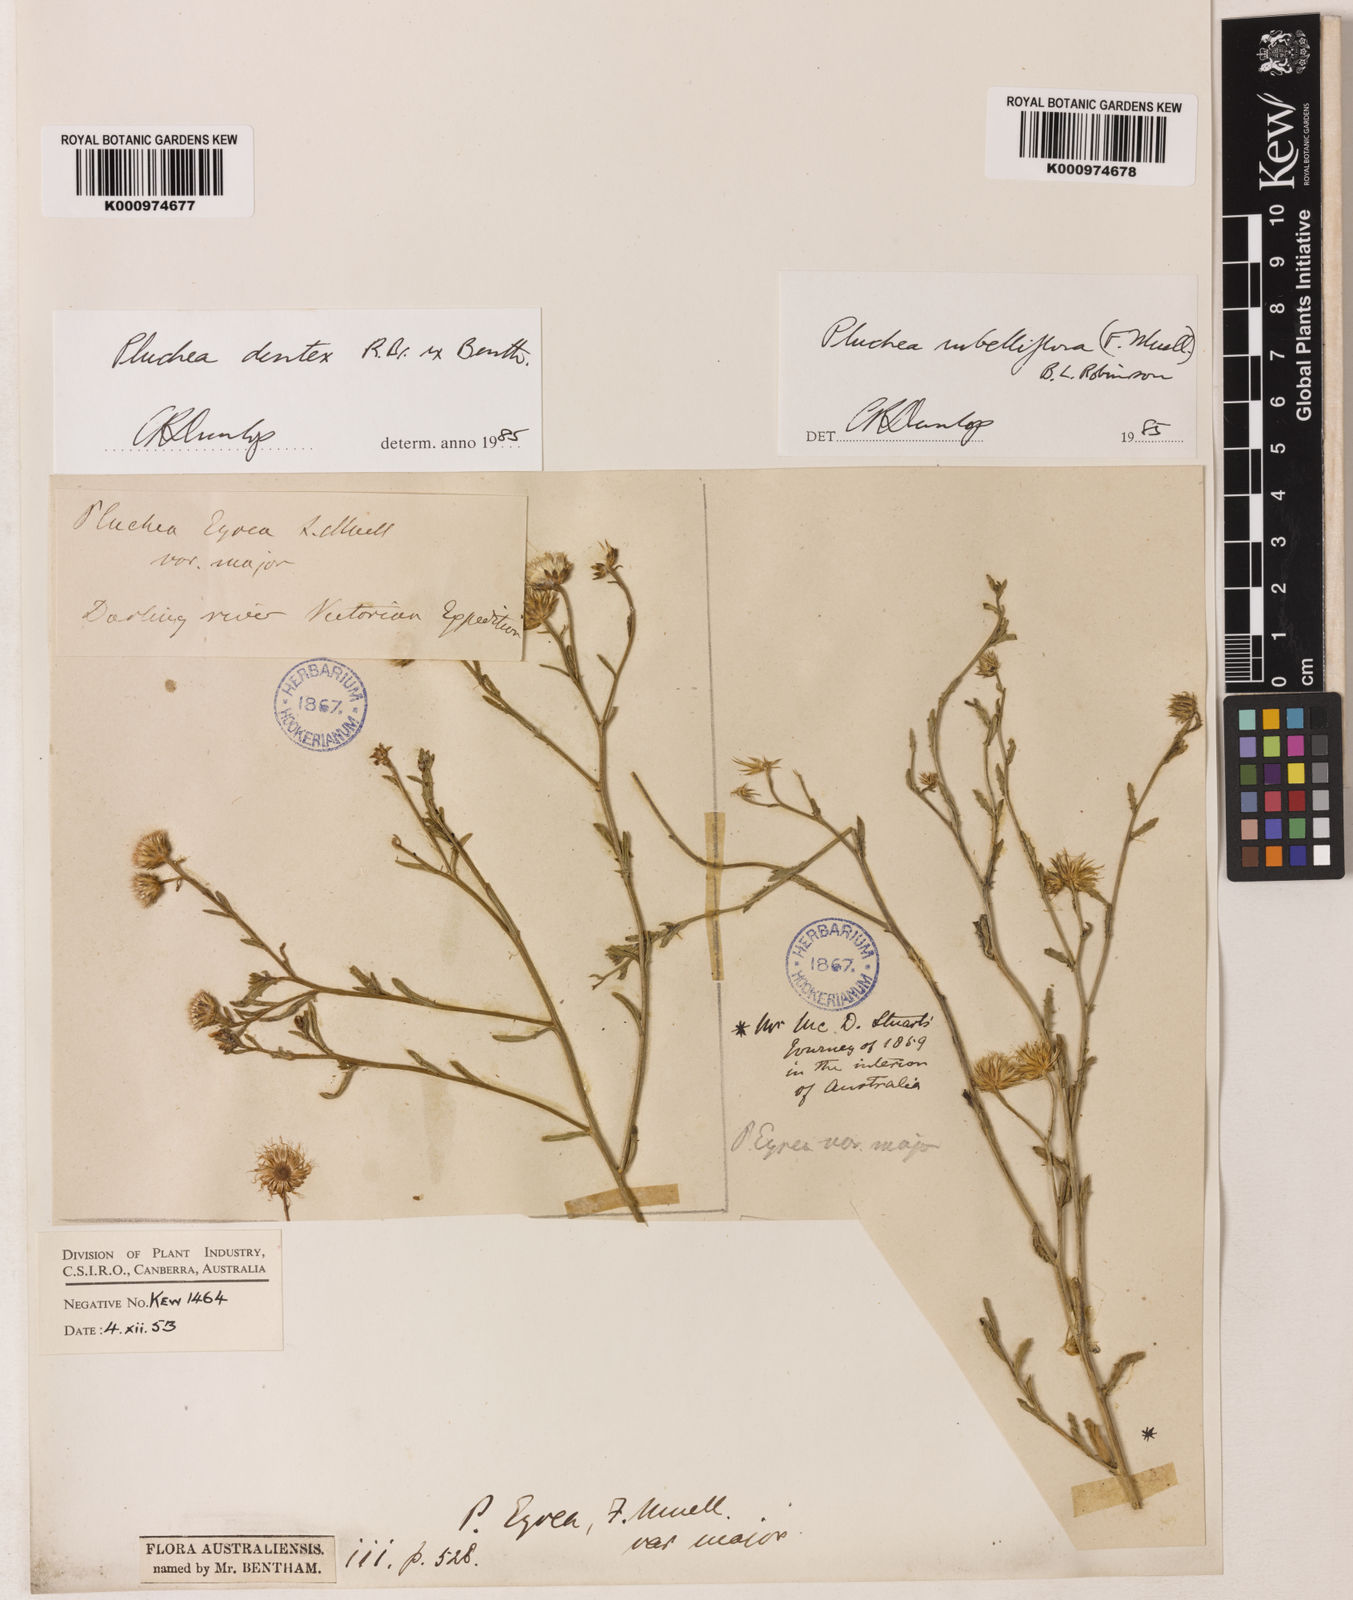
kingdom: Plantae
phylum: Tracheophyta
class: Magnoliopsida
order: Asterales
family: Asteraceae
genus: Pluchea
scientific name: Pluchea rubelliflora
